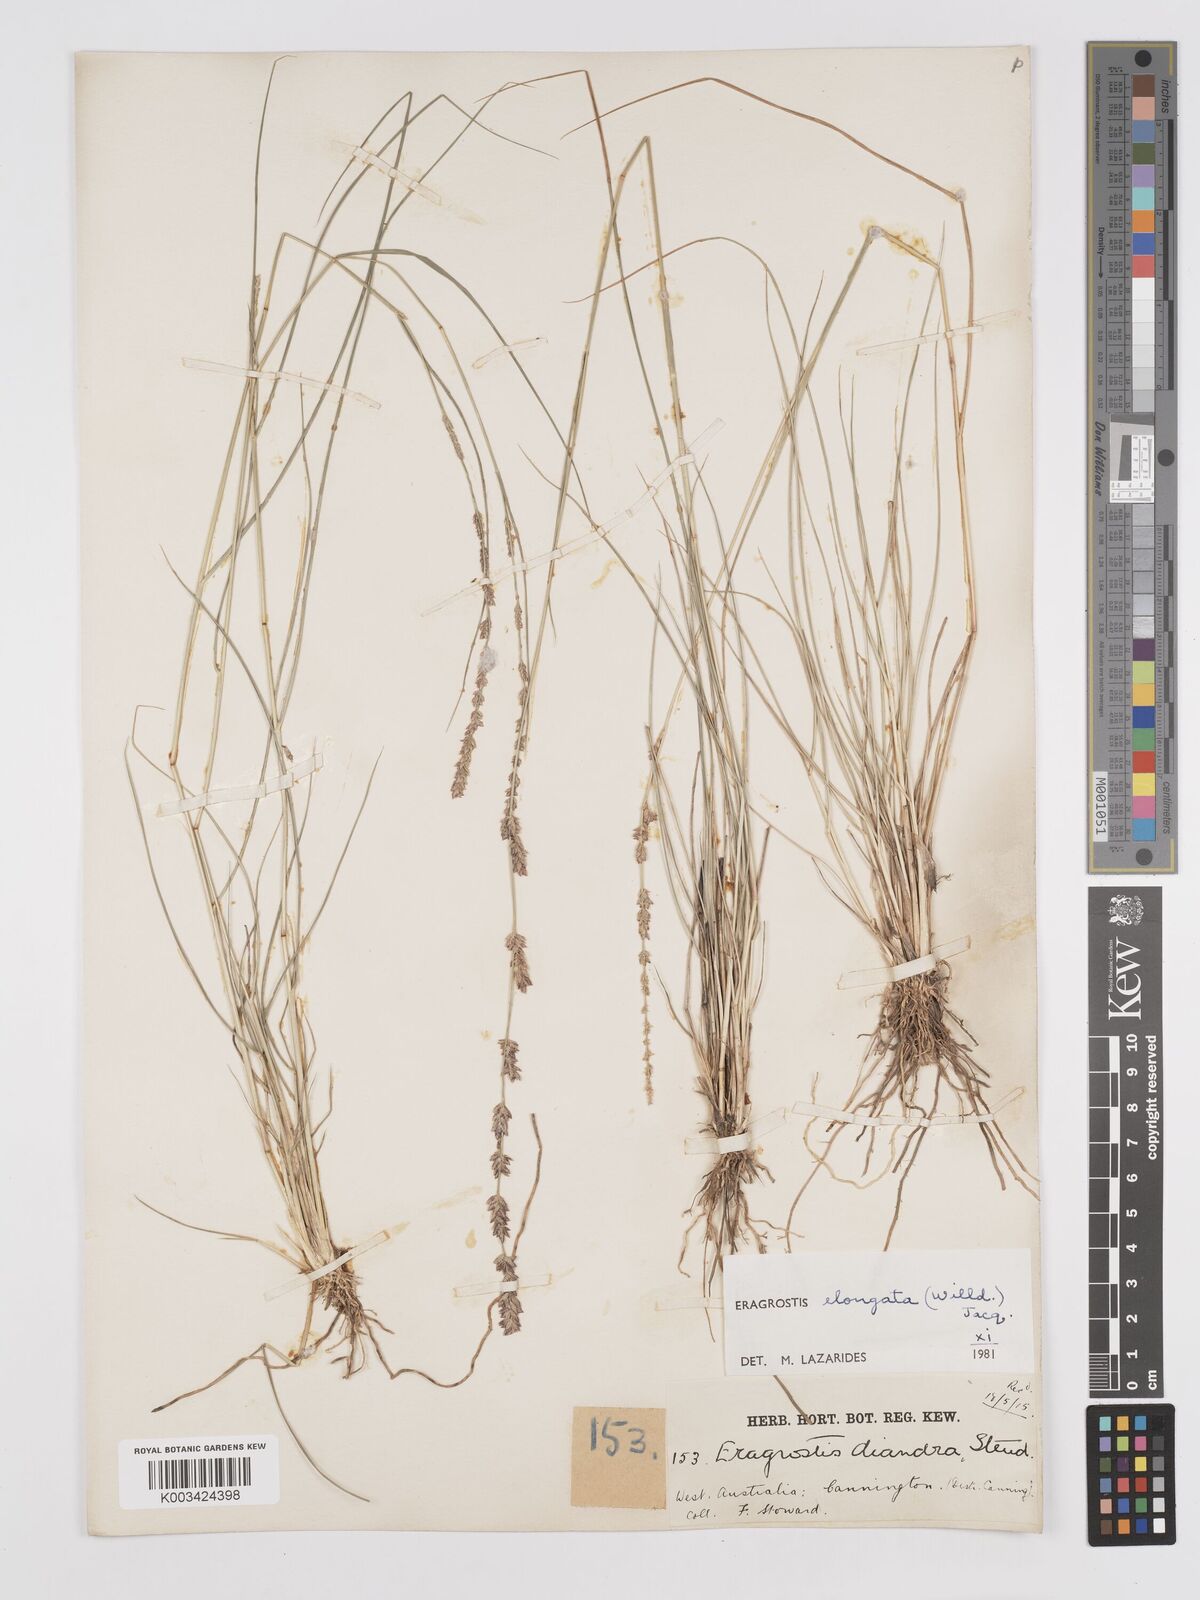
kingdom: Plantae
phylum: Tracheophyta
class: Liliopsida
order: Poales
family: Poaceae
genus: Eragrostis
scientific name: Eragrostis elongata
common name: Long lovegrass
